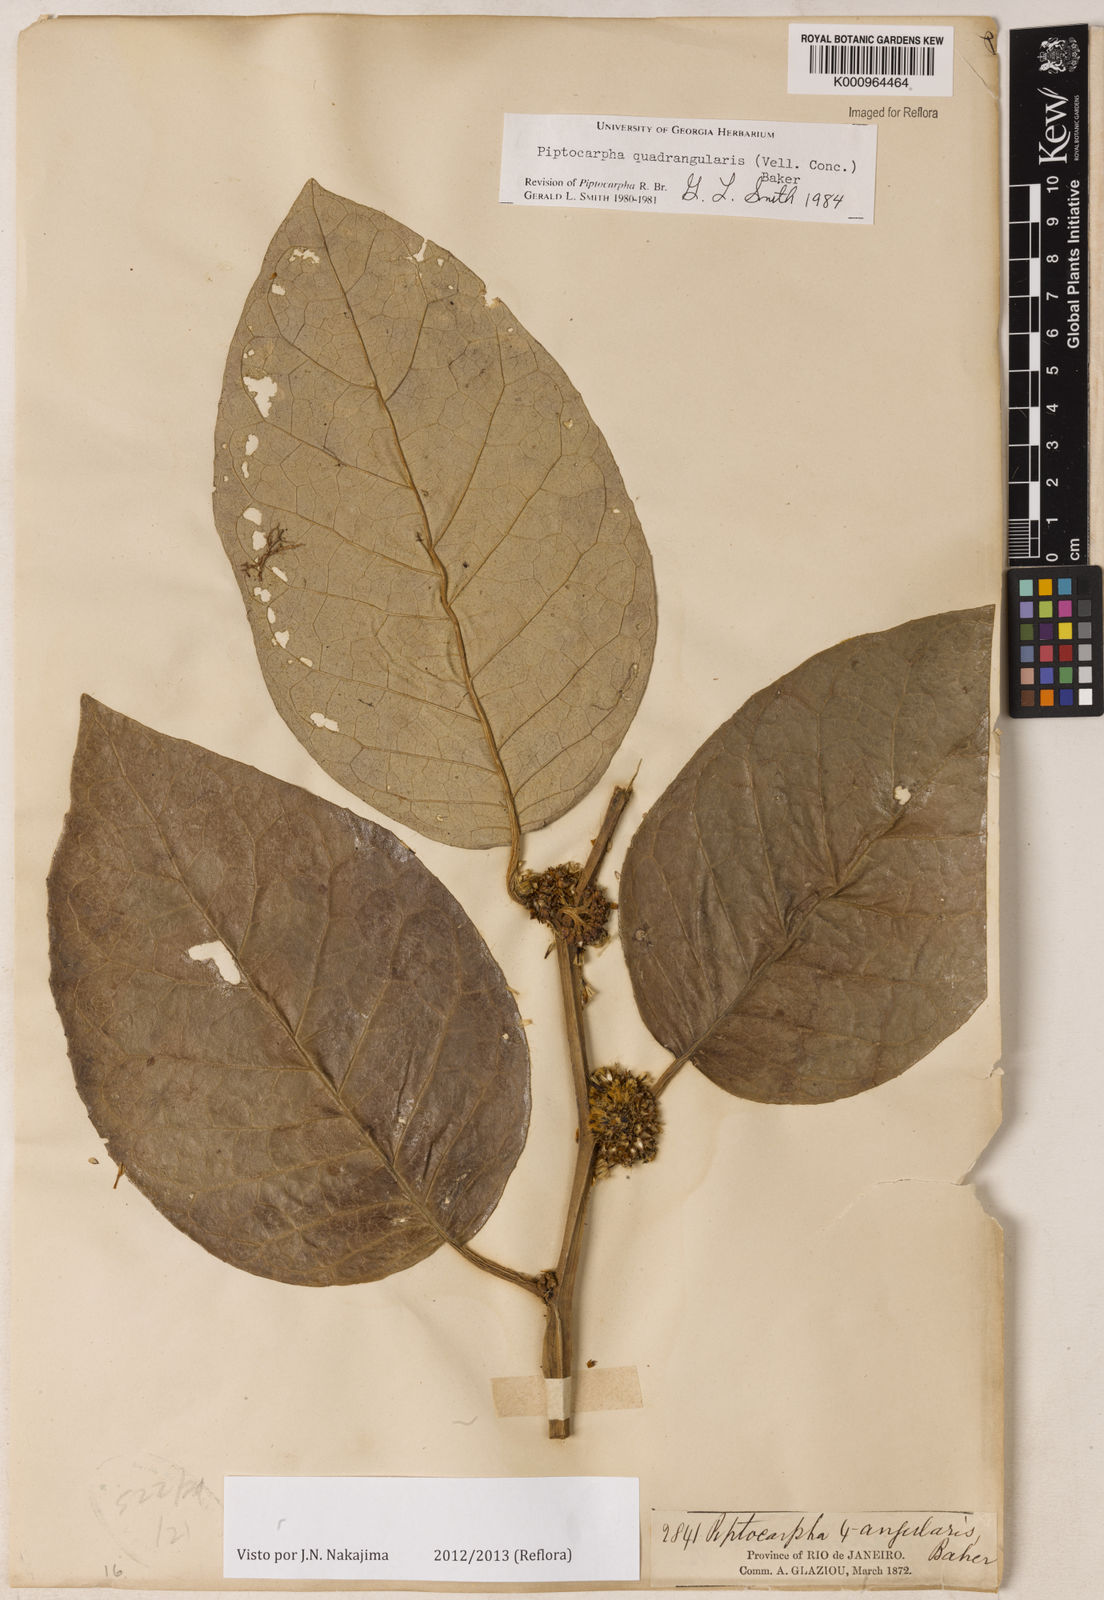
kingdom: Plantae
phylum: Tracheophyta
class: Magnoliopsida
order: Asterales
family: Asteraceae
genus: Piptocarpha
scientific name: Piptocarpha quadrangularis
